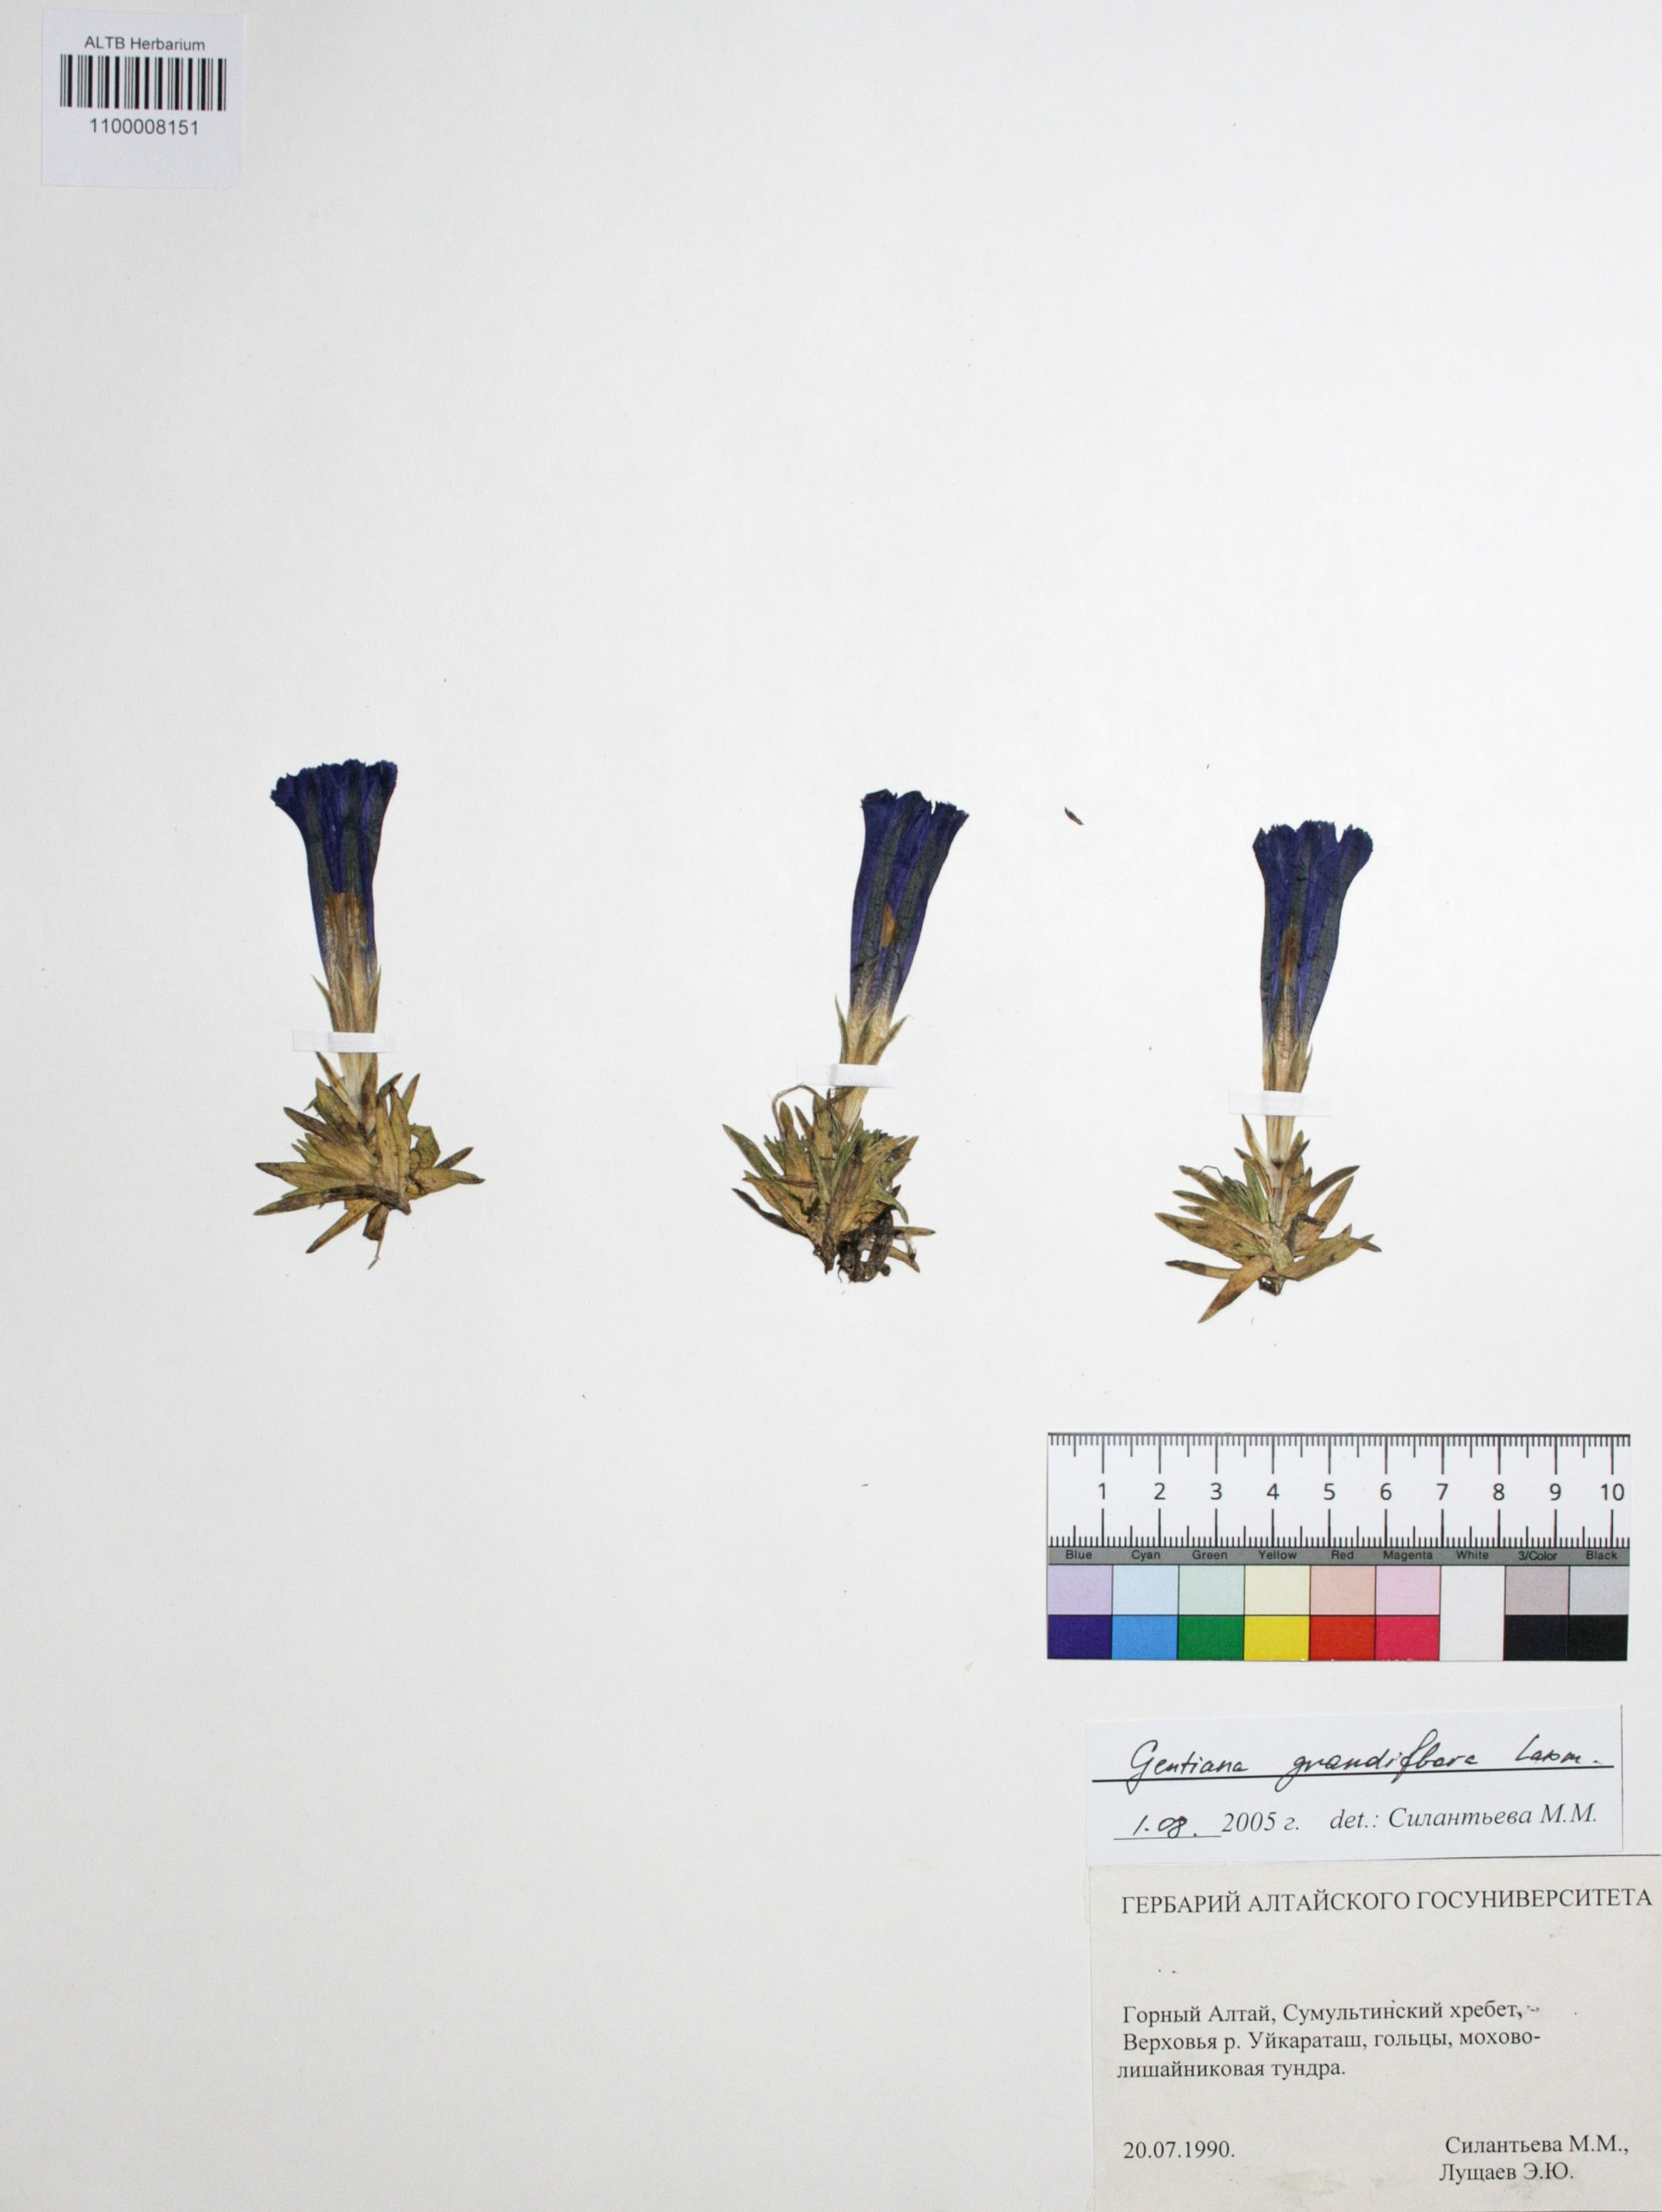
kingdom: Plantae
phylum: Tracheophyta
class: Magnoliopsida
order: Gentianales
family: Gentianaceae
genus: Gentiana
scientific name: Gentiana grandiflora
